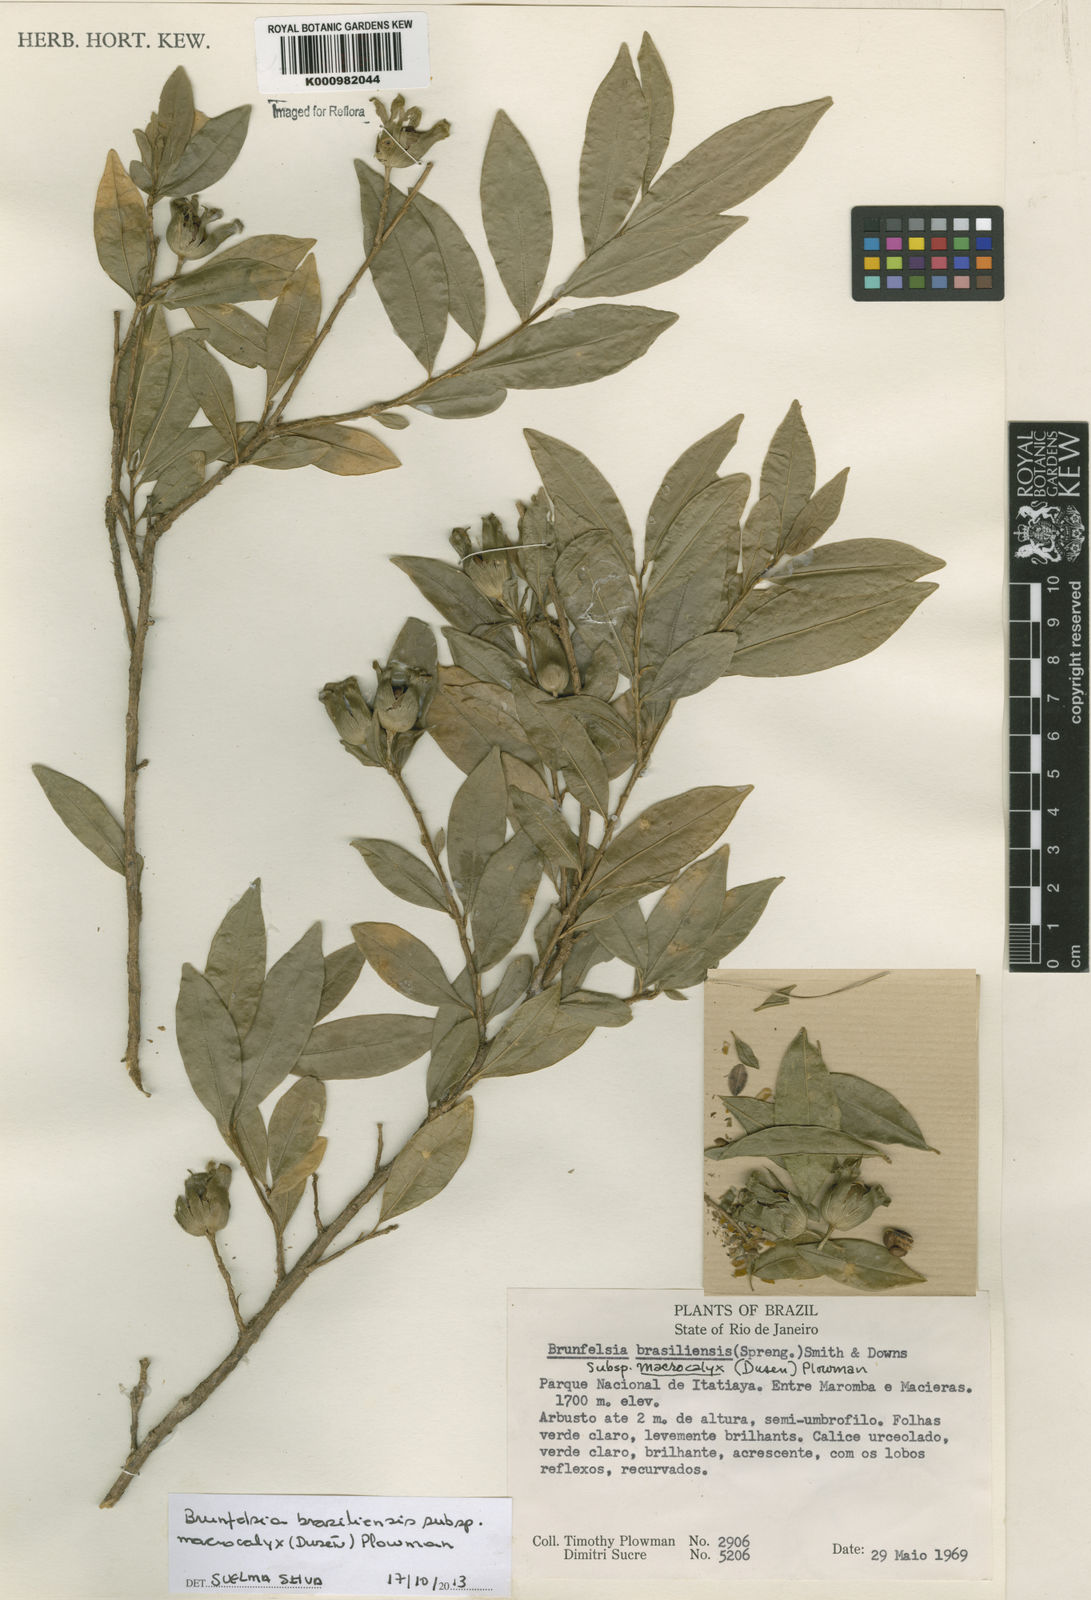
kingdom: Plantae
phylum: Tracheophyta
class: Magnoliopsida
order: Solanales
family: Solanaceae
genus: Brunfelsia
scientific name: Brunfelsia brasiliensis
